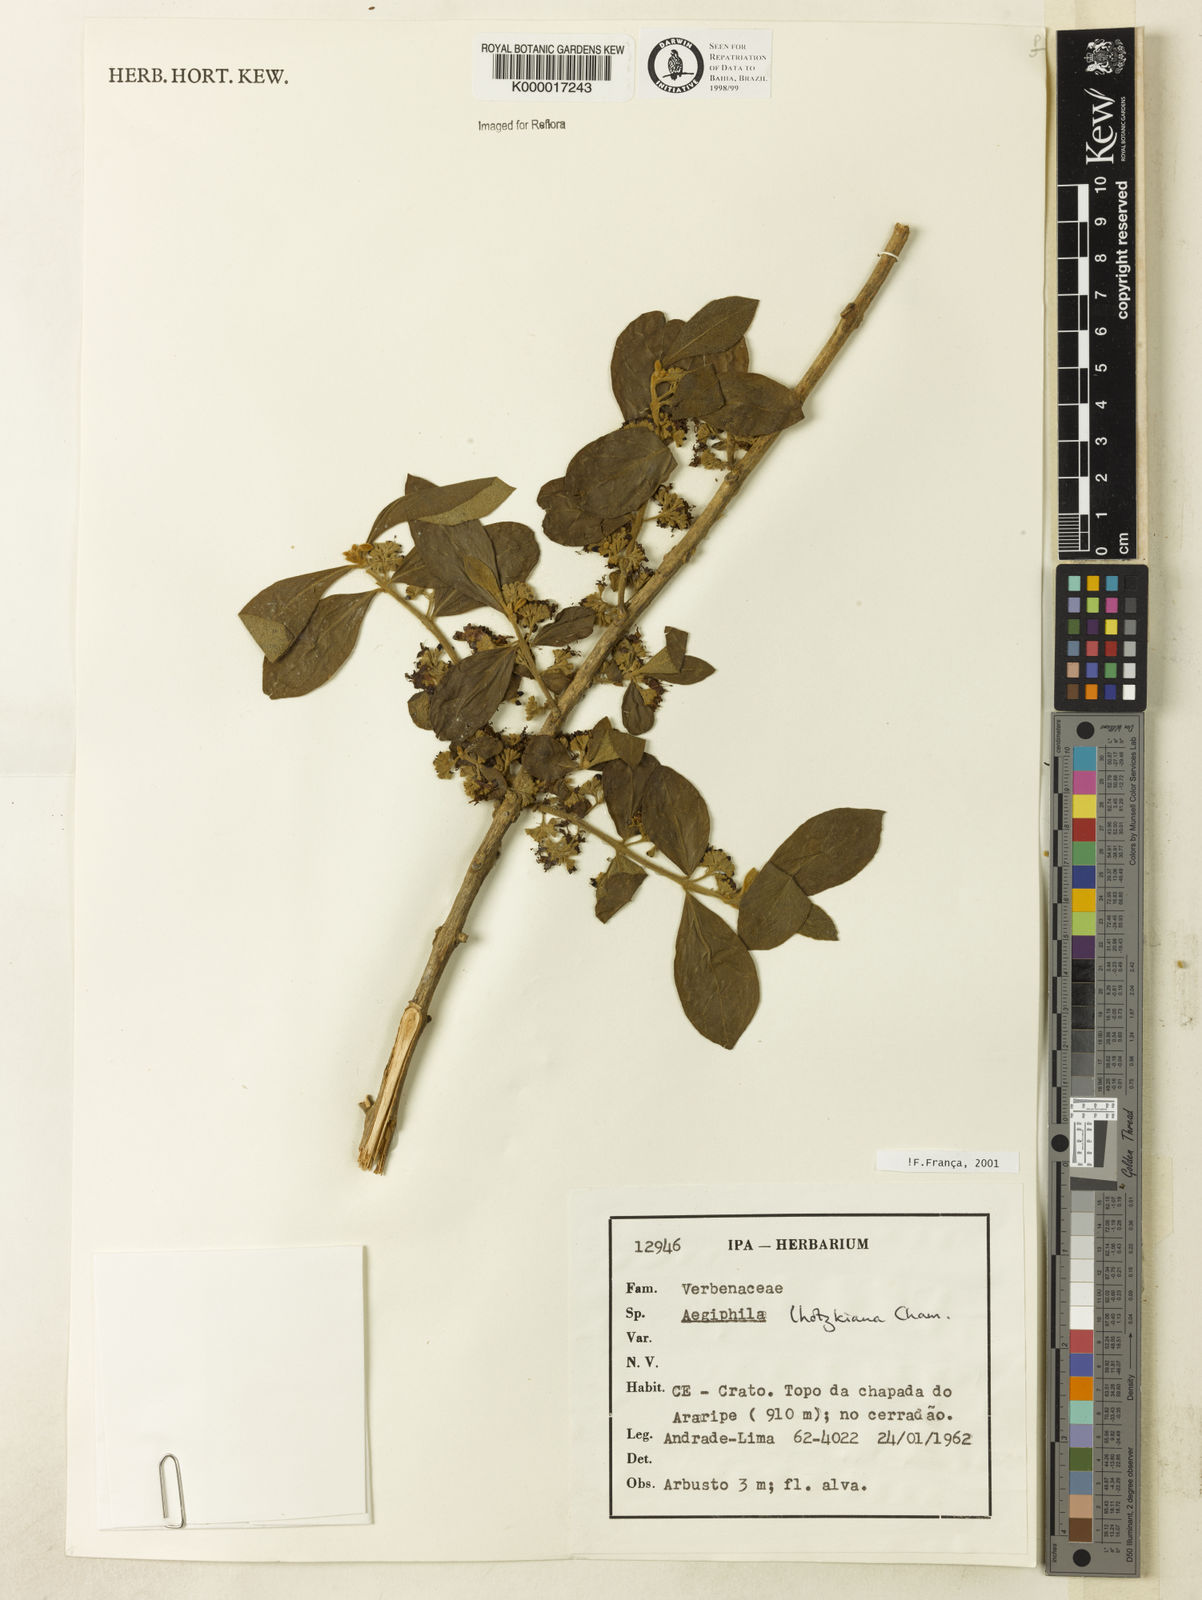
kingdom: Plantae
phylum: Tracheophyta
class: Magnoliopsida
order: Lamiales
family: Lamiaceae
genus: Aegiphila
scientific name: Aegiphila verticillata
